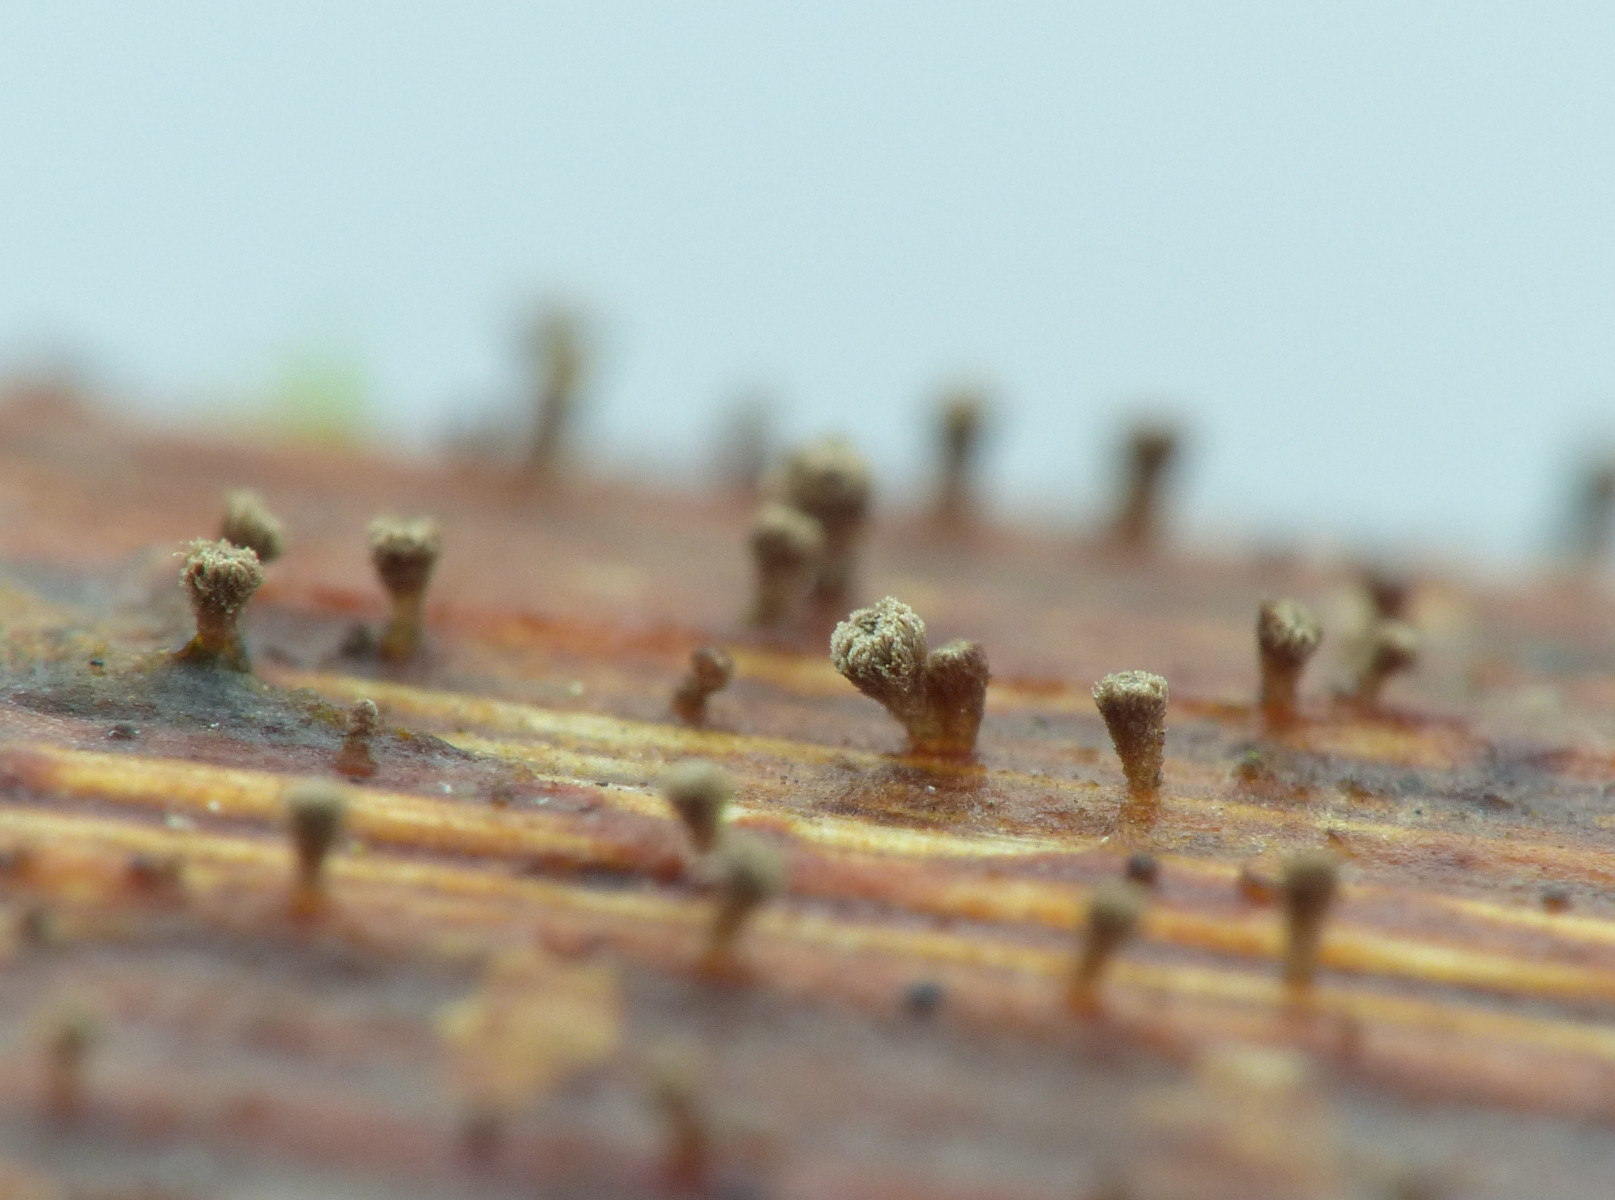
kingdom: Fungi
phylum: Ascomycota
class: Leotiomycetes
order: Helotiales
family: Lachnaceae
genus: Brunnipila
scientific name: Brunnipila clandestina
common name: hindbær-frynseskive
